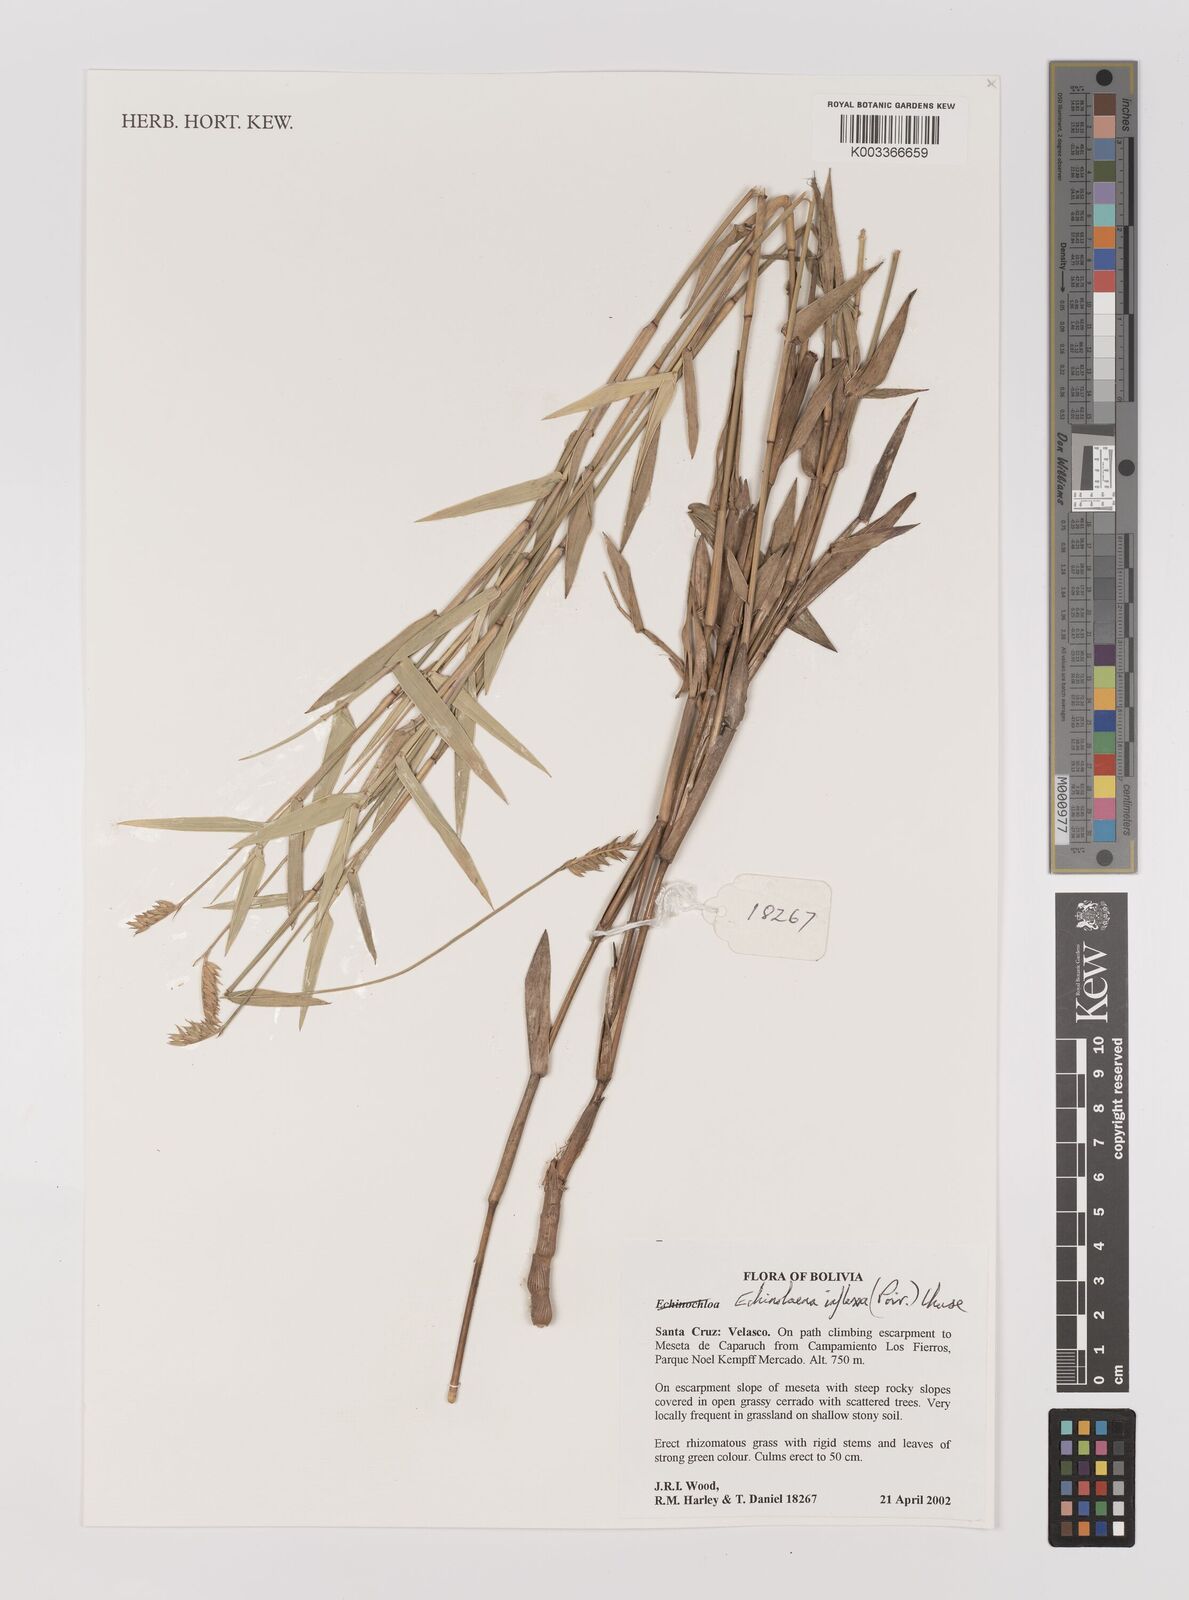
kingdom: Plantae
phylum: Tracheophyta
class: Liliopsida
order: Poales
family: Poaceae
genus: Echinolaena
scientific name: Echinolaena inflexa
